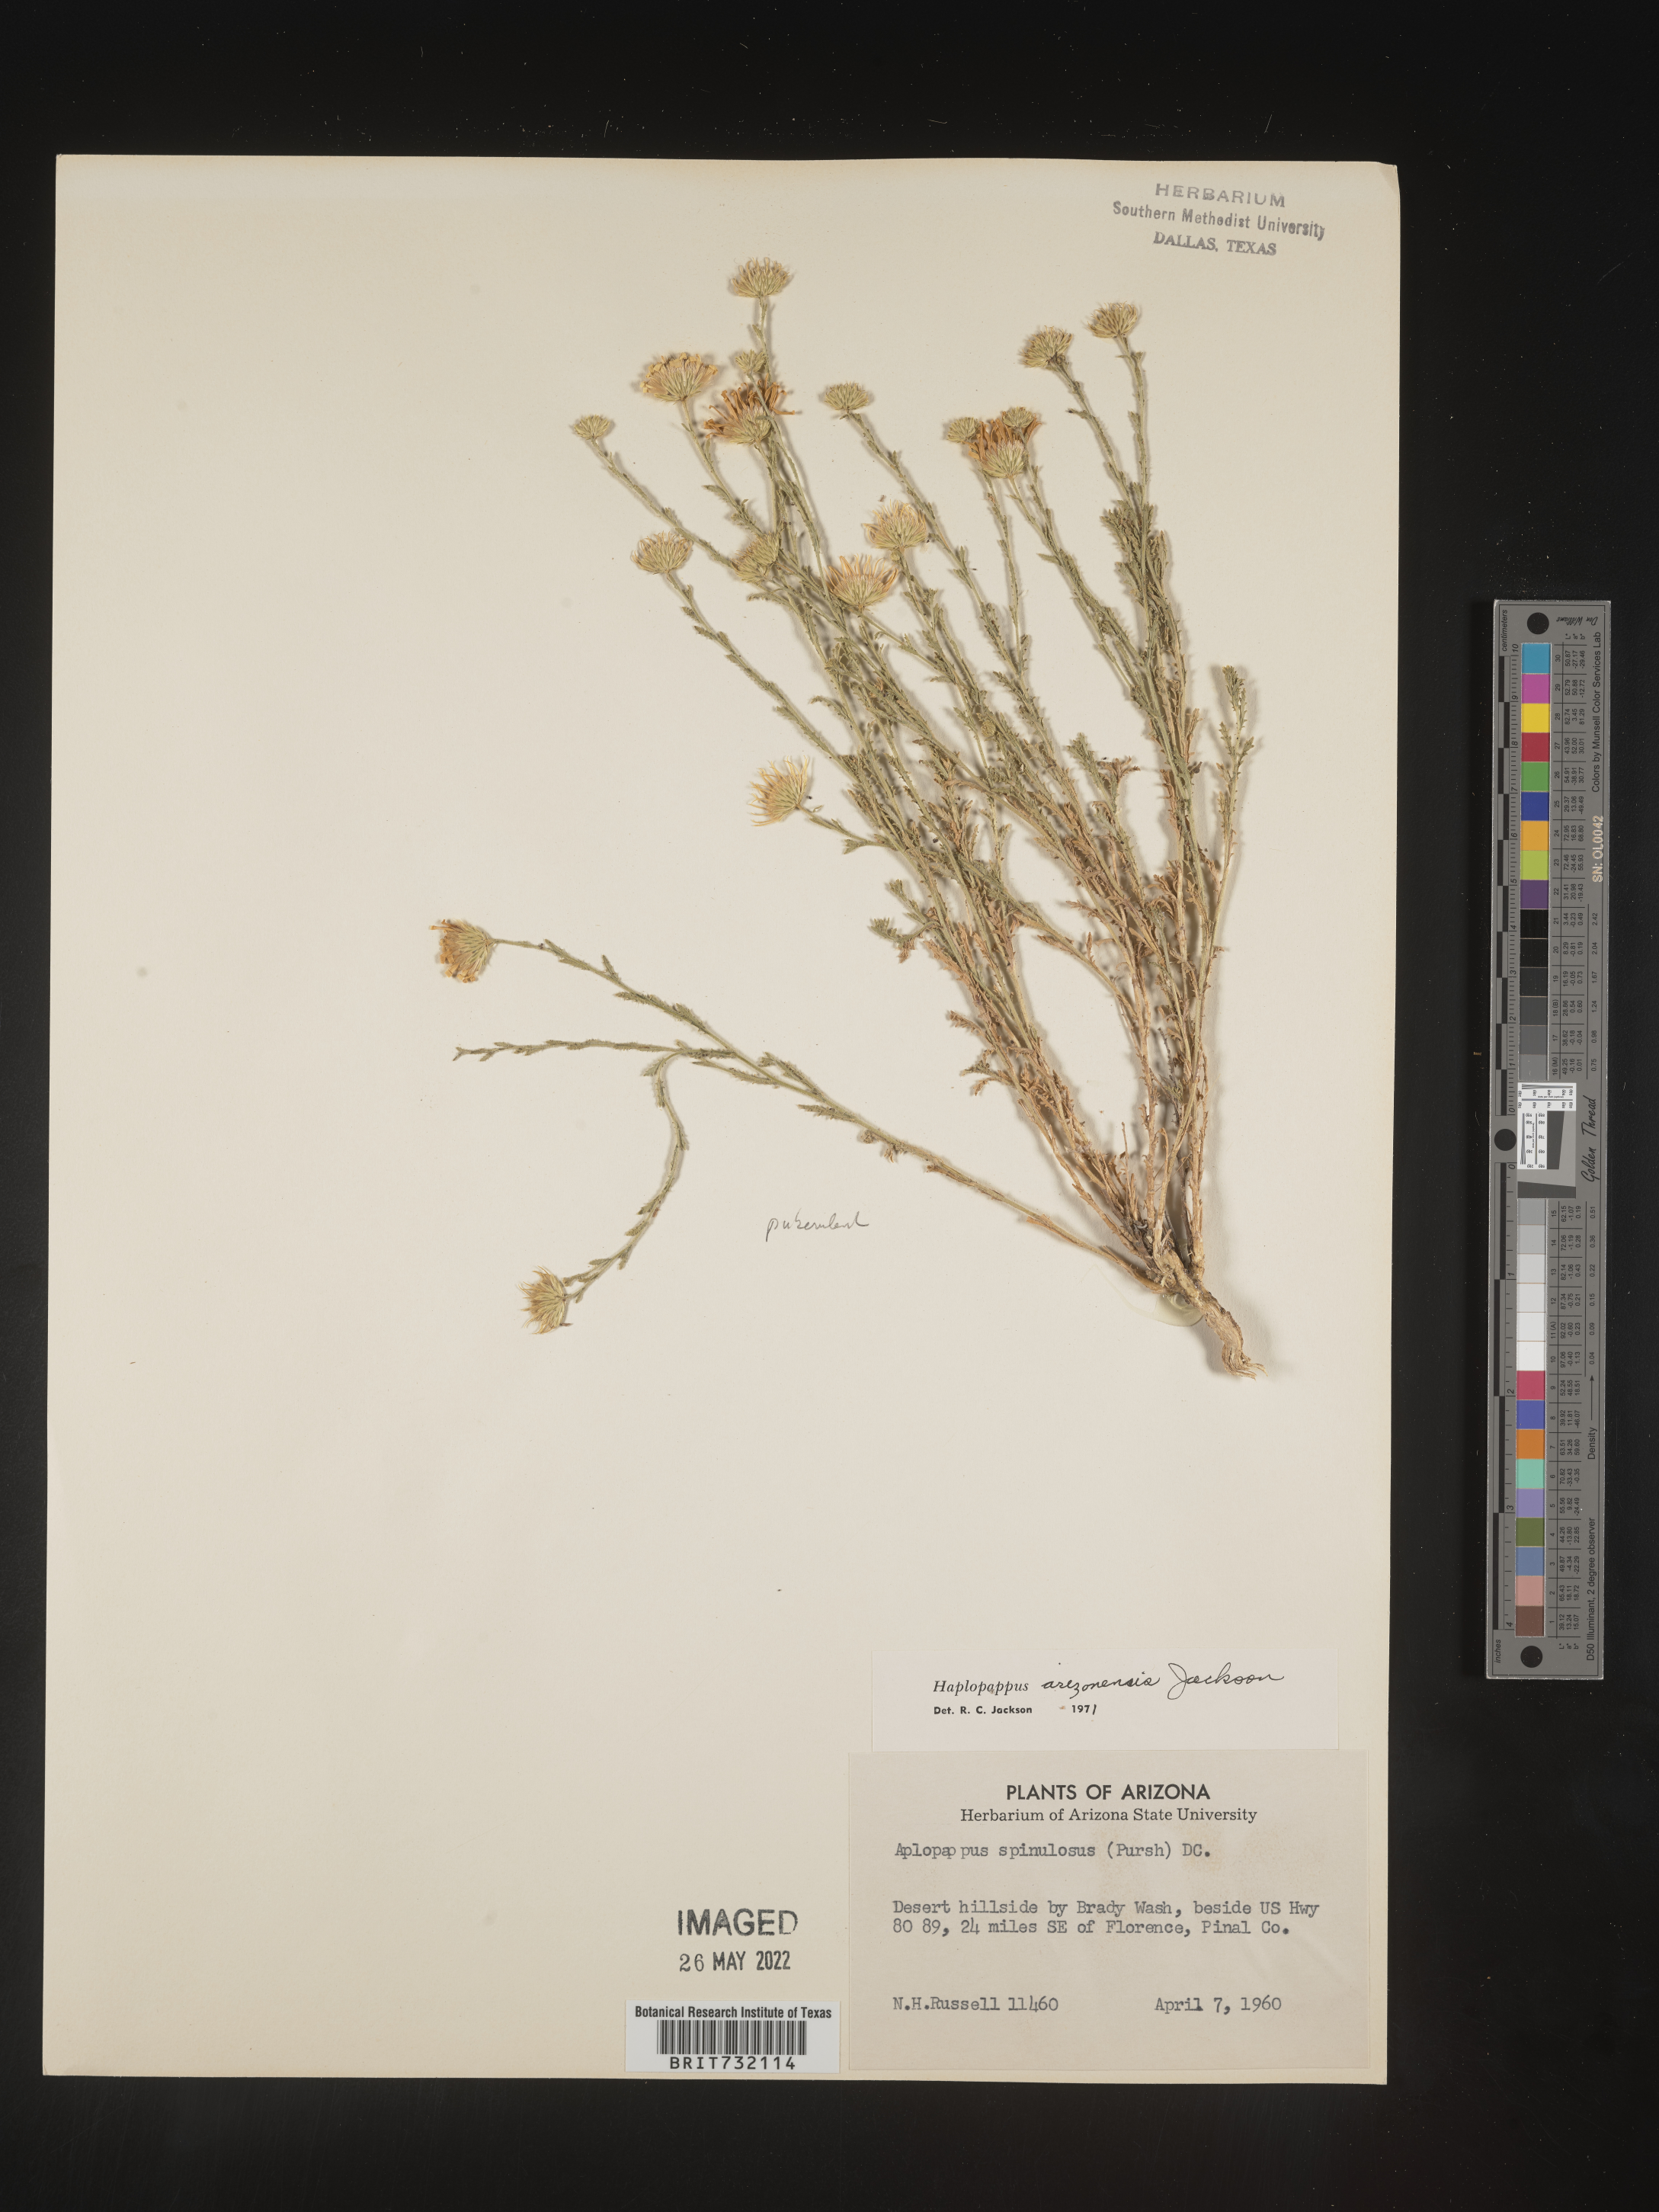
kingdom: Plantae
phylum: Tracheophyta
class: Magnoliopsida
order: Asterales
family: Asteraceae
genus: Haplopappus
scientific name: Haplopappus
